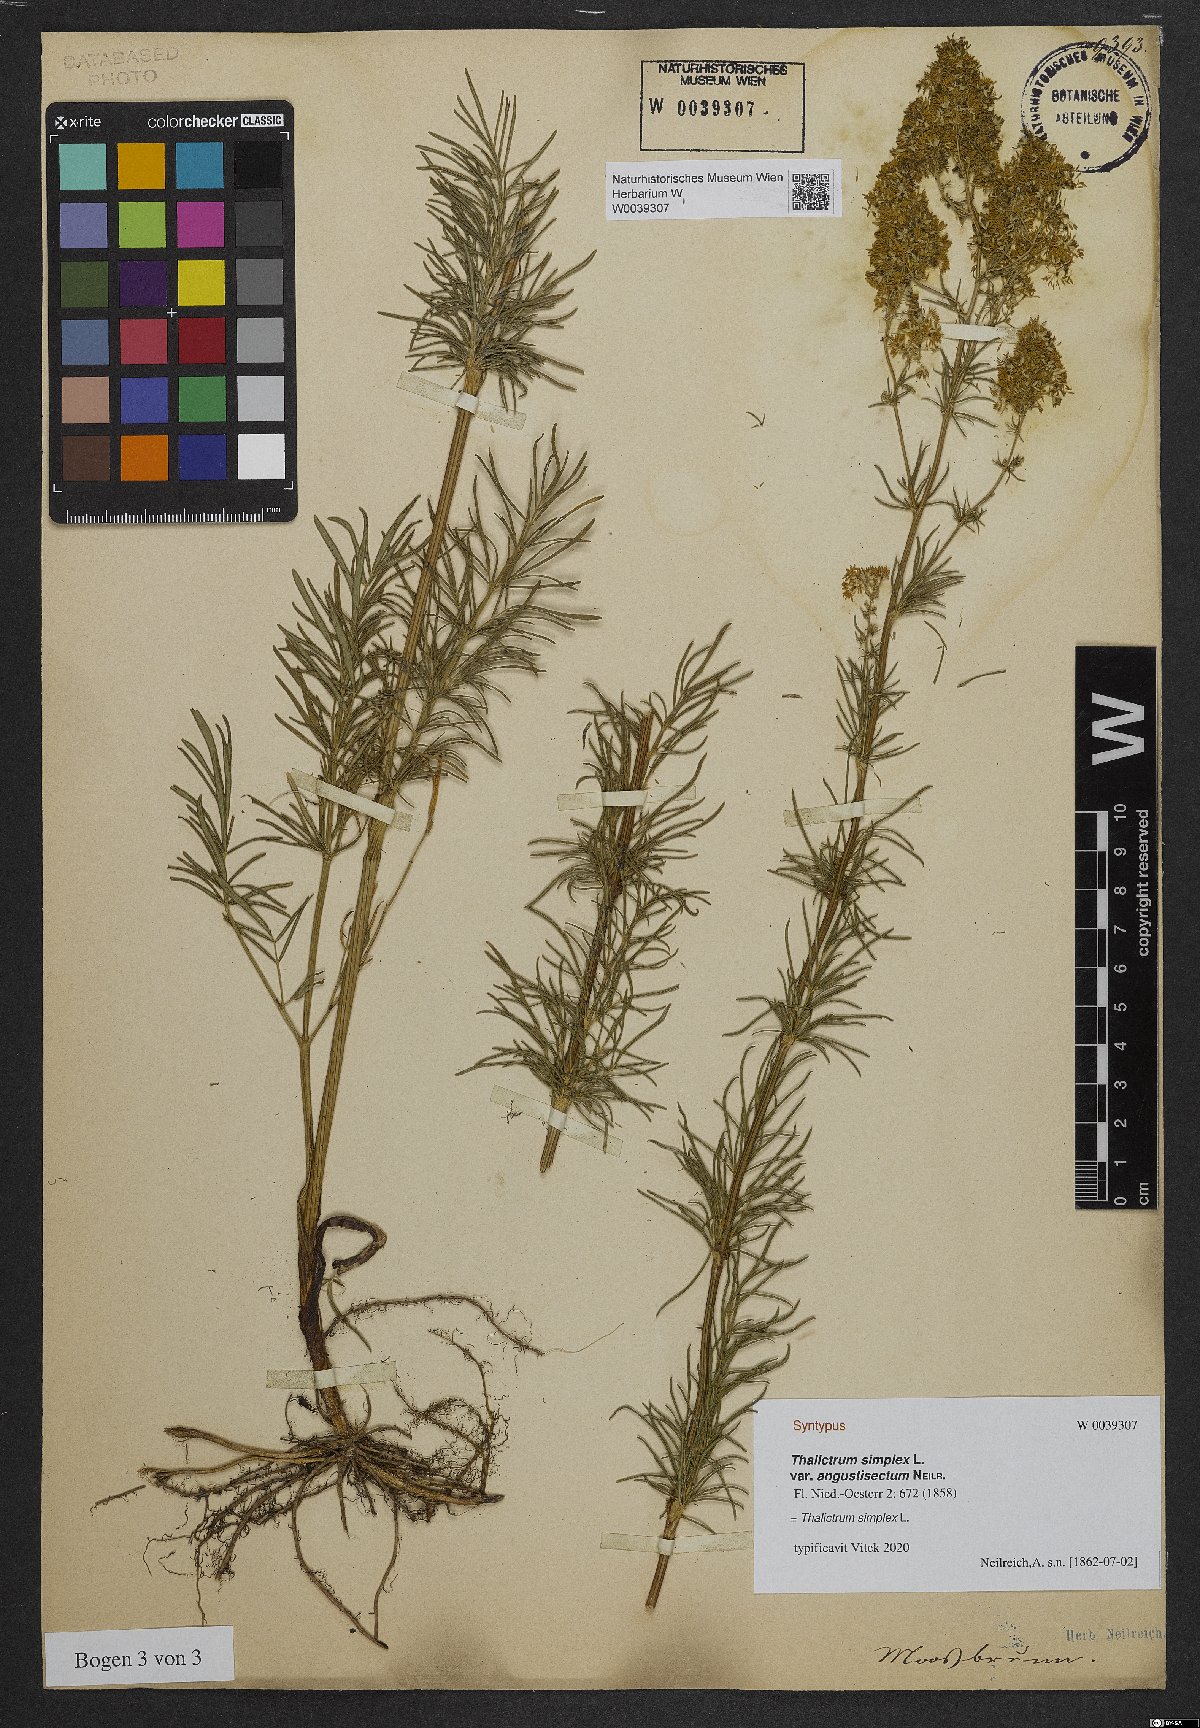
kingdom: Plantae
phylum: Tracheophyta
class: Magnoliopsida
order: Ranunculales
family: Ranunculaceae
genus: Thalictrum
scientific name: Thalictrum simplex
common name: Small meadow-rue
